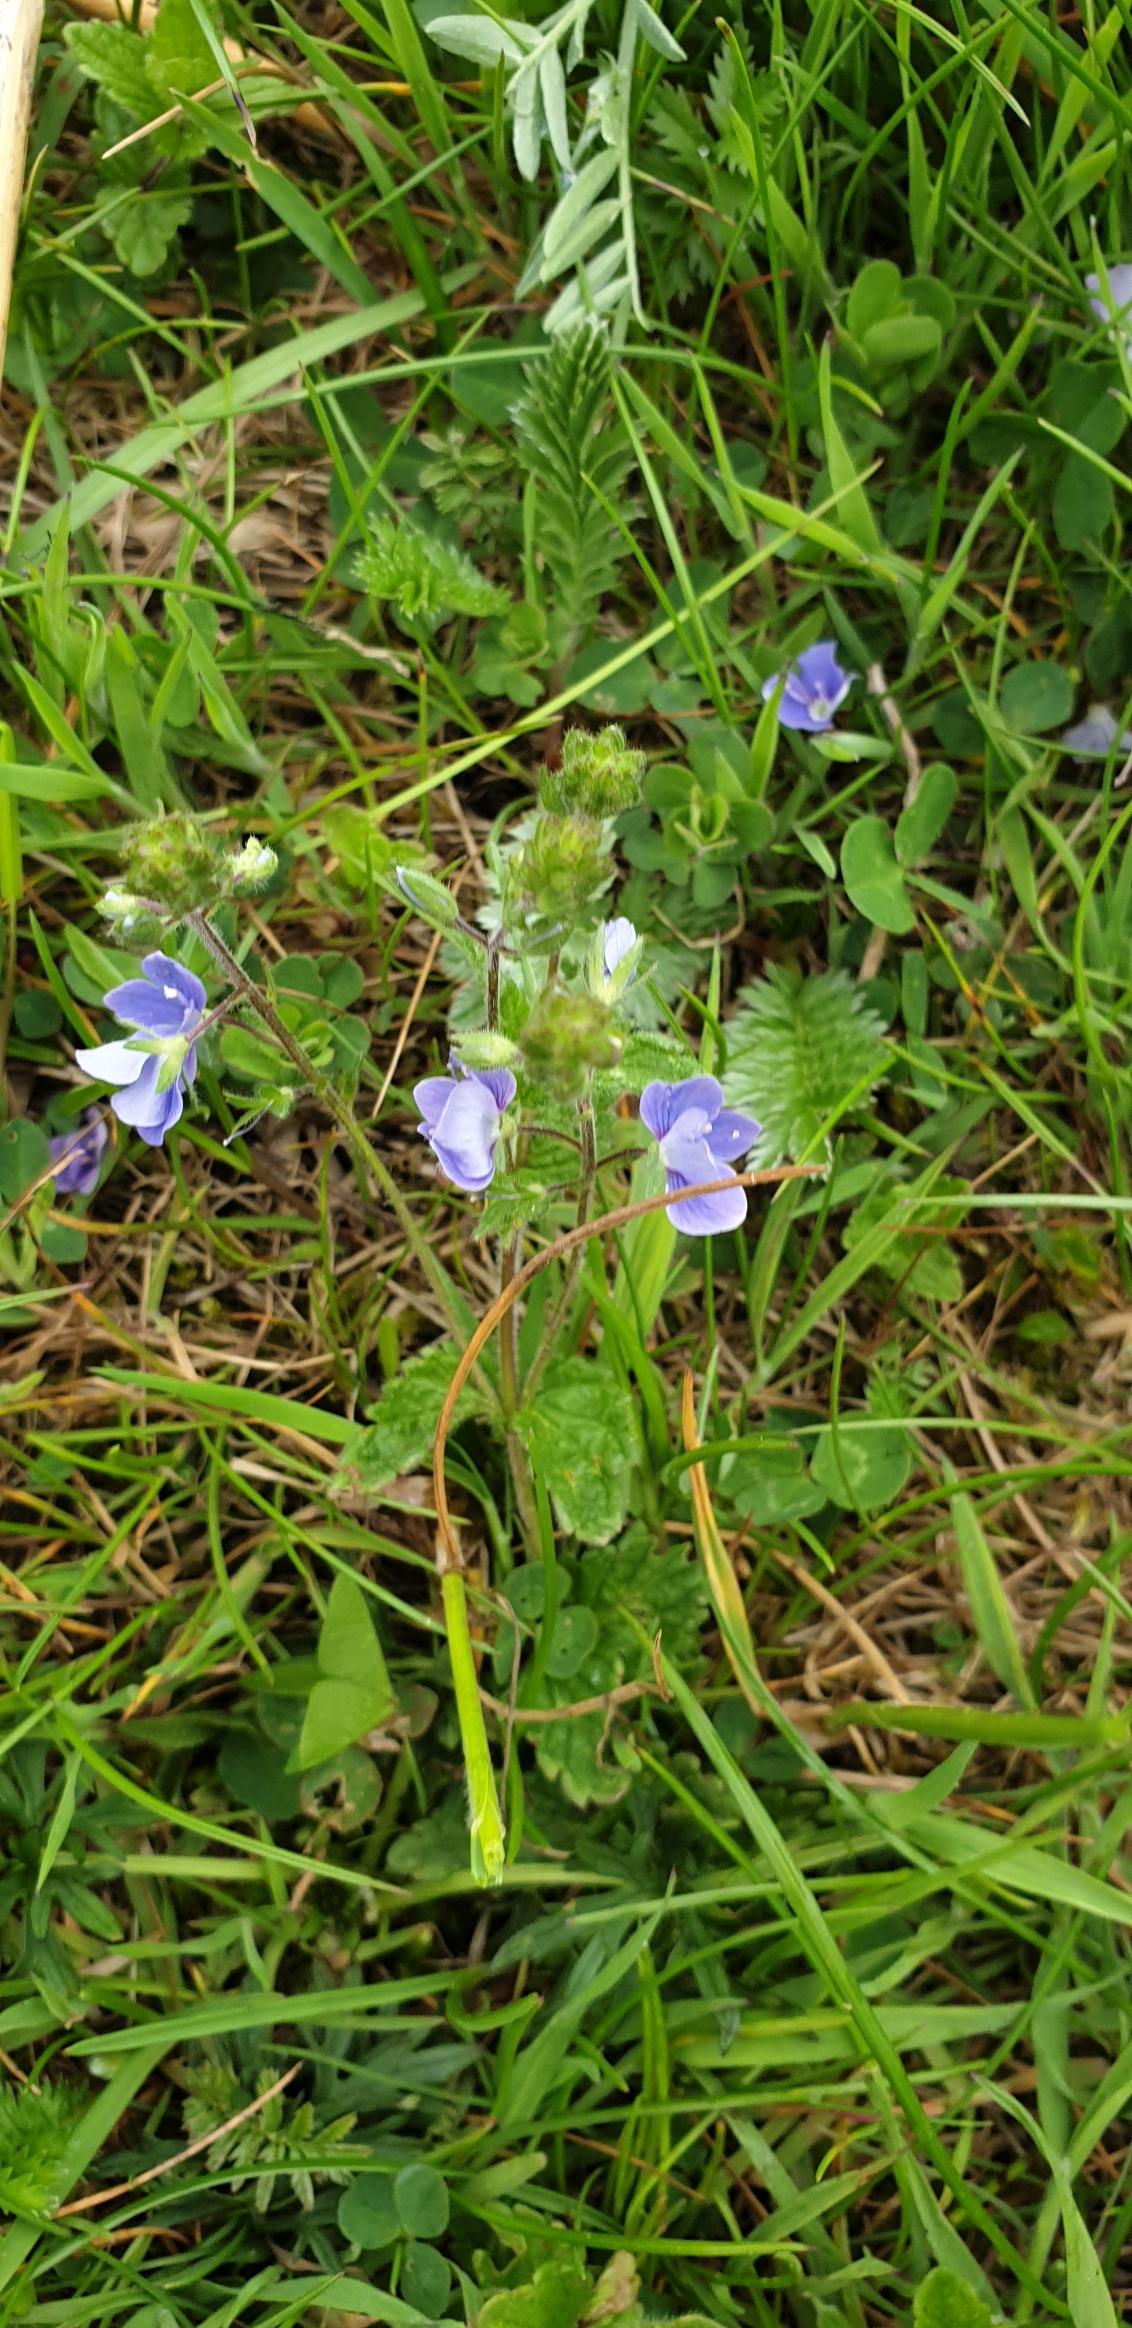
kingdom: Plantae
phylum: Tracheophyta
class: Magnoliopsida
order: Lamiales
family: Plantaginaceae
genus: Veronica
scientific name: Veronica chamaedrys
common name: Tveskægget ærenpris
